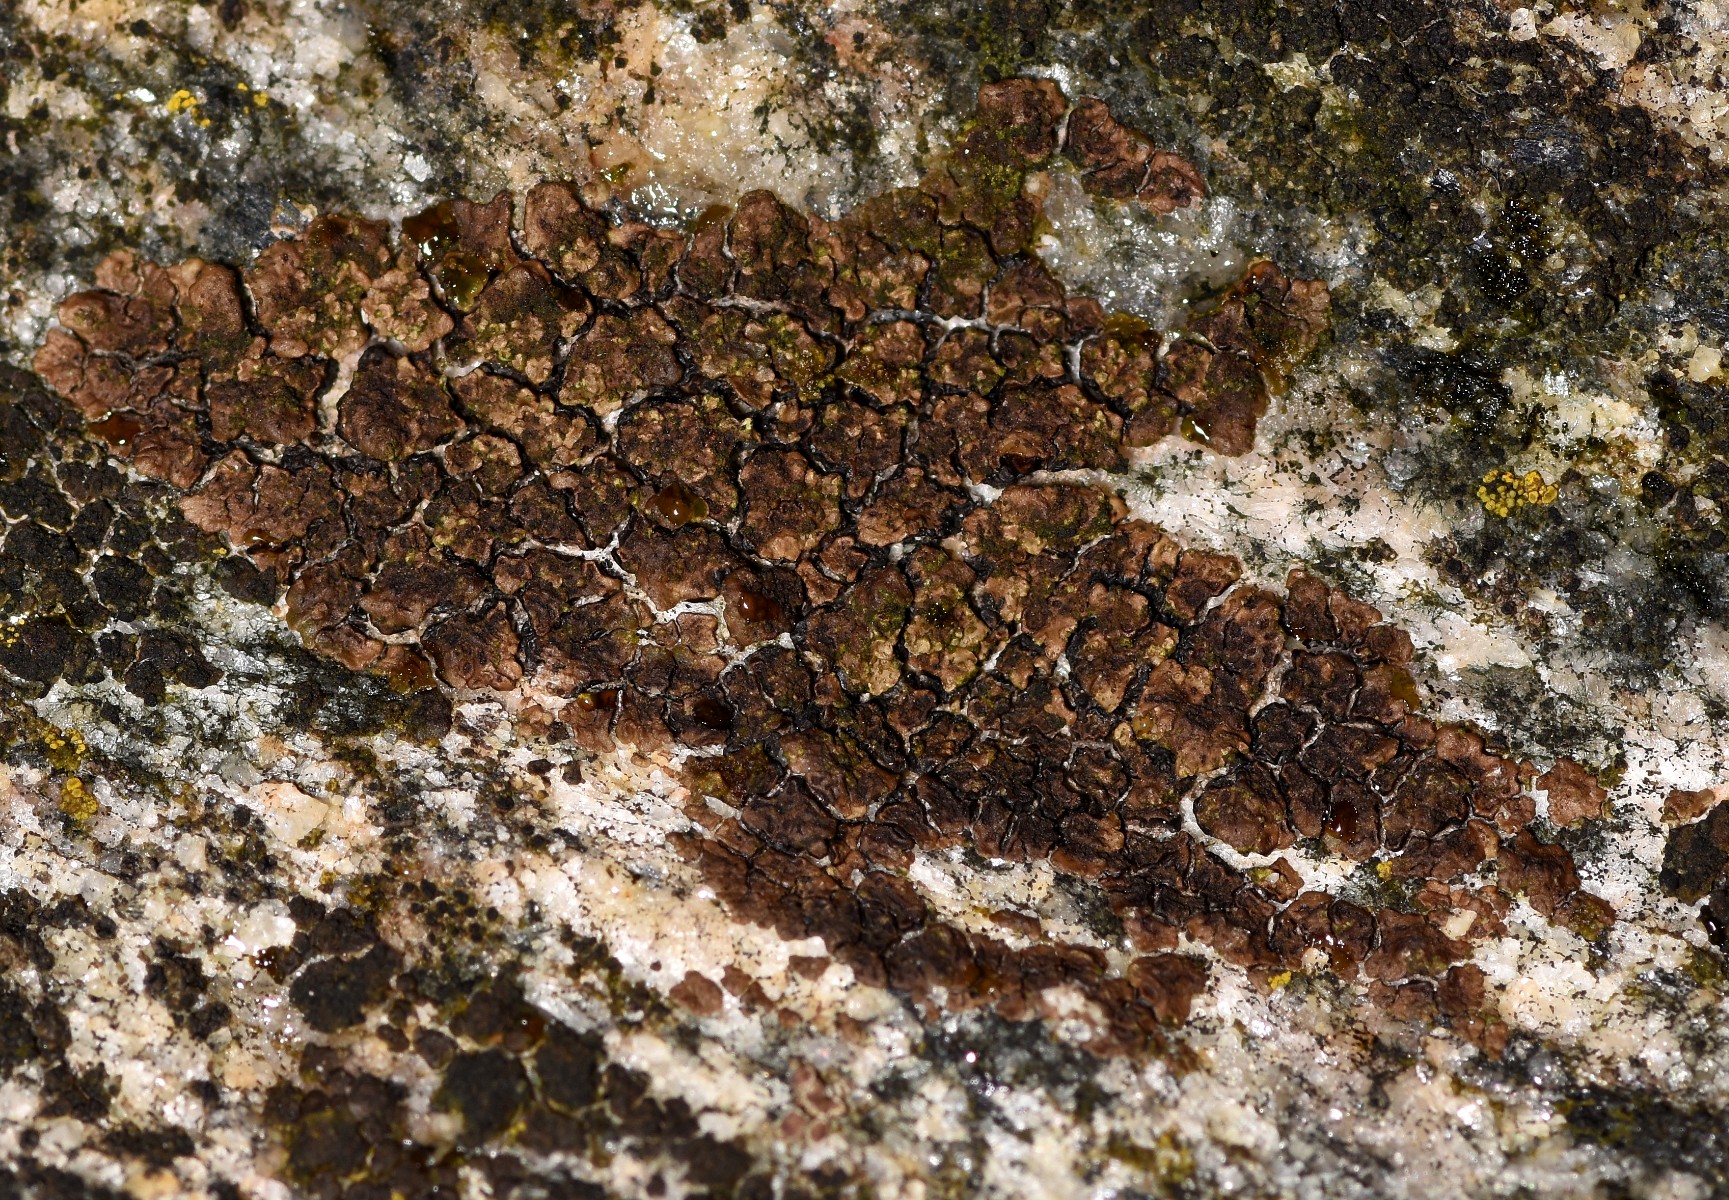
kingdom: Fungi
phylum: Ascomycota
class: Lecanoromycetes
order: Acarosporales
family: Acarosporaceae
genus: Acarospora
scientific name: Acarospora fuscata
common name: brun småsporelav
